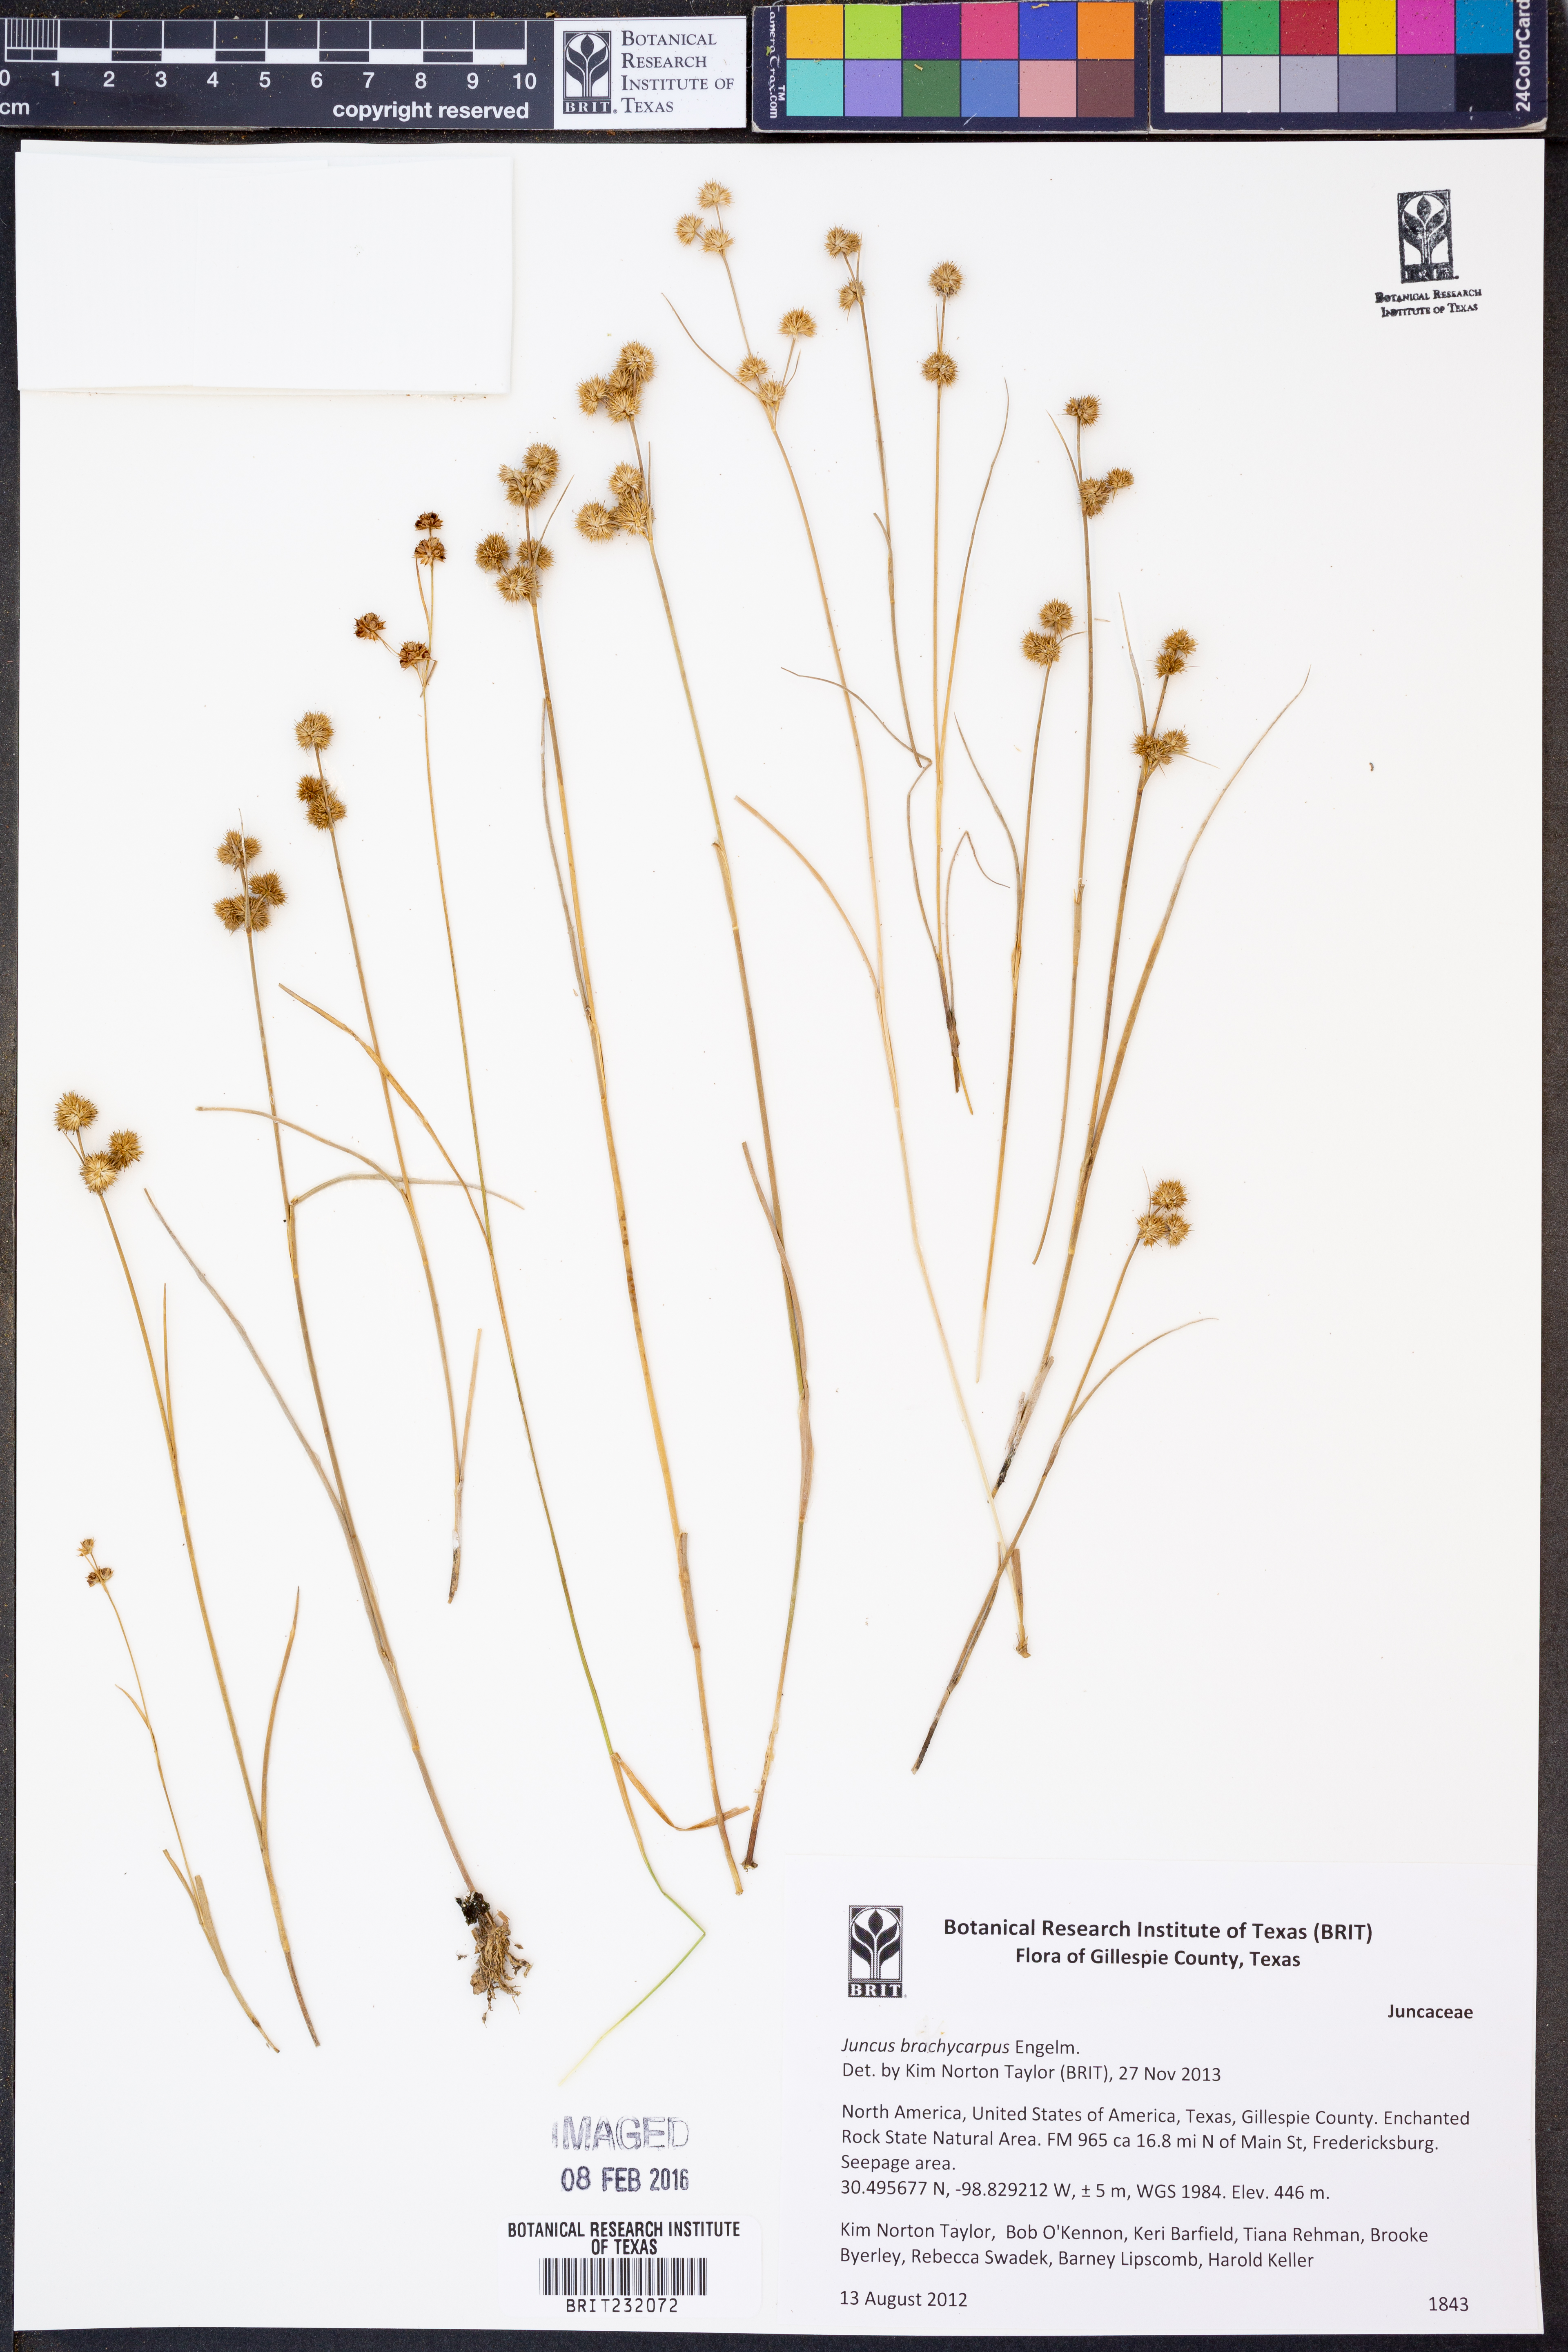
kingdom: Plantae
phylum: Tracheophyta
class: Liliopsida
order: Poales
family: Juncaceae
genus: Juncus
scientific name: Juncus brachycarpus
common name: Shore rush
